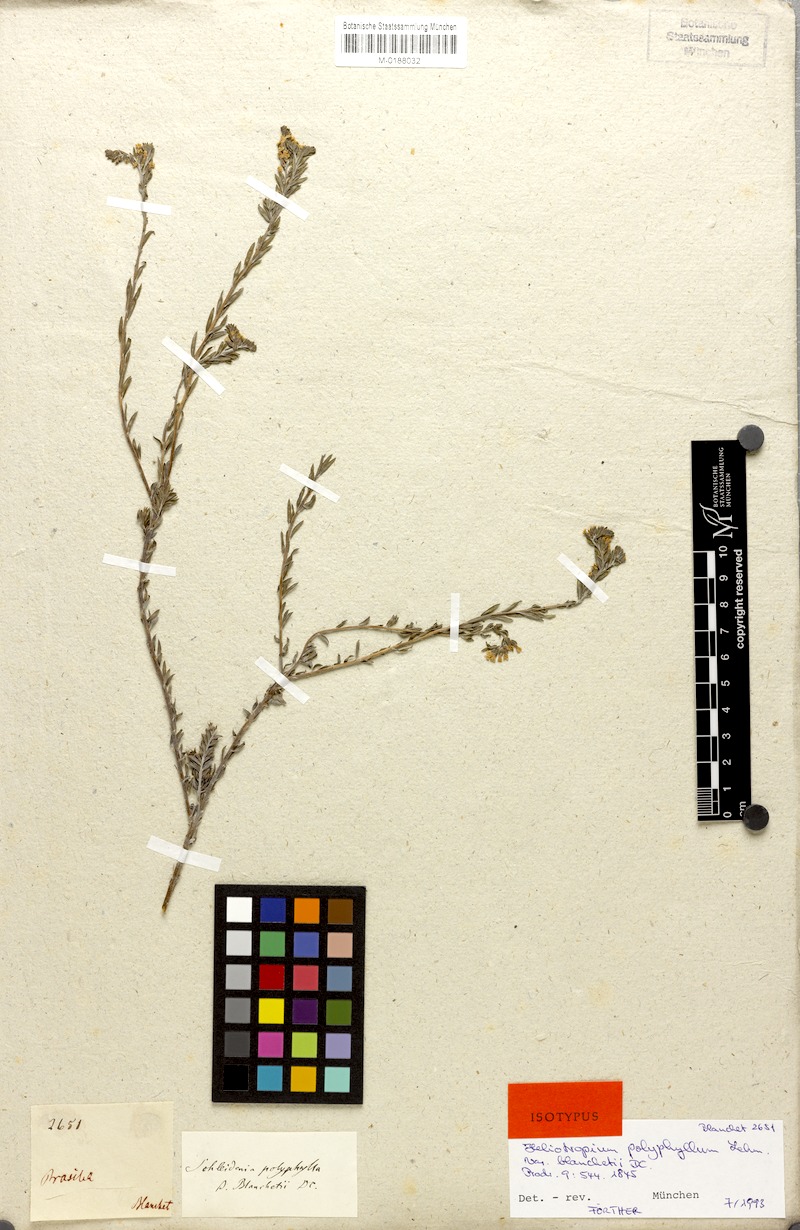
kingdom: Plantae
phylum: Tracheophyta
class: Magnoliopsida
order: Boraginales
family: Heliotropiaceae
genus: Euploca
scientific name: Euploca polyphylla
